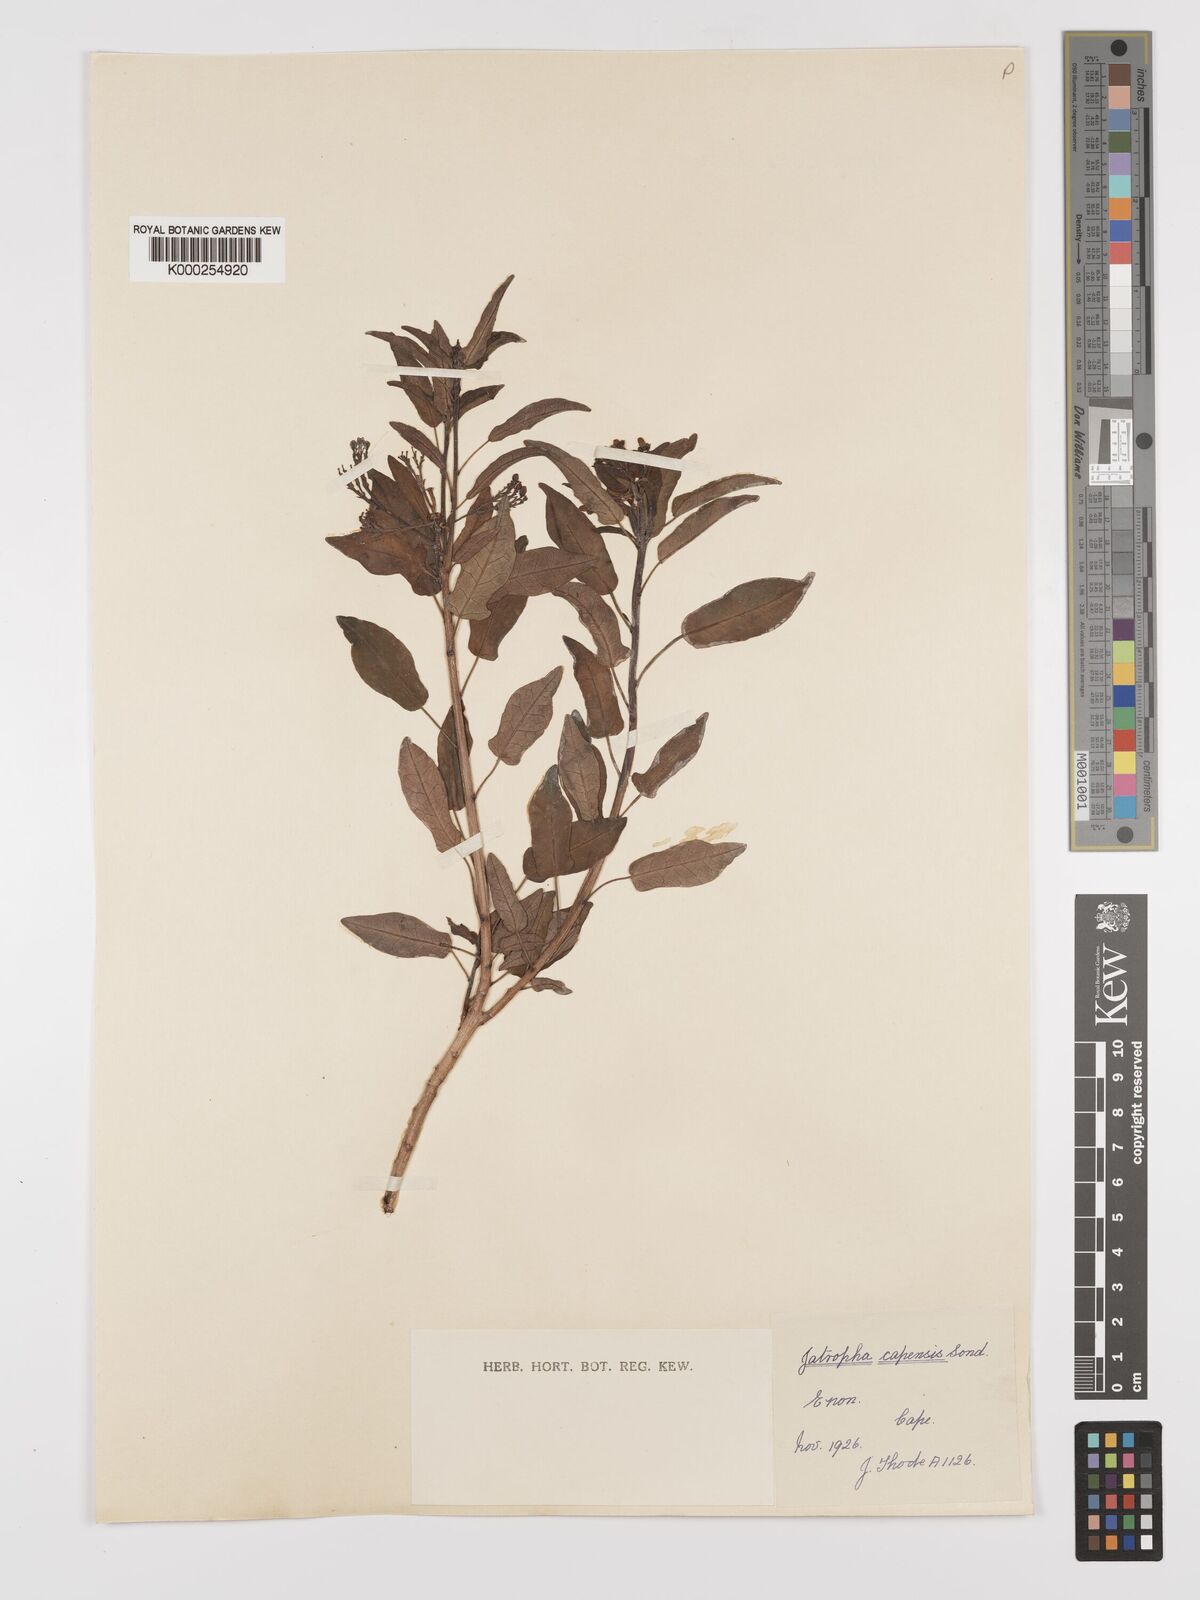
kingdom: Plantae
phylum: Tracheophyta
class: Magnoliopsida
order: Malpighiales
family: Euphorbiaceae
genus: Jatropha
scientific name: Jatropha capensis
